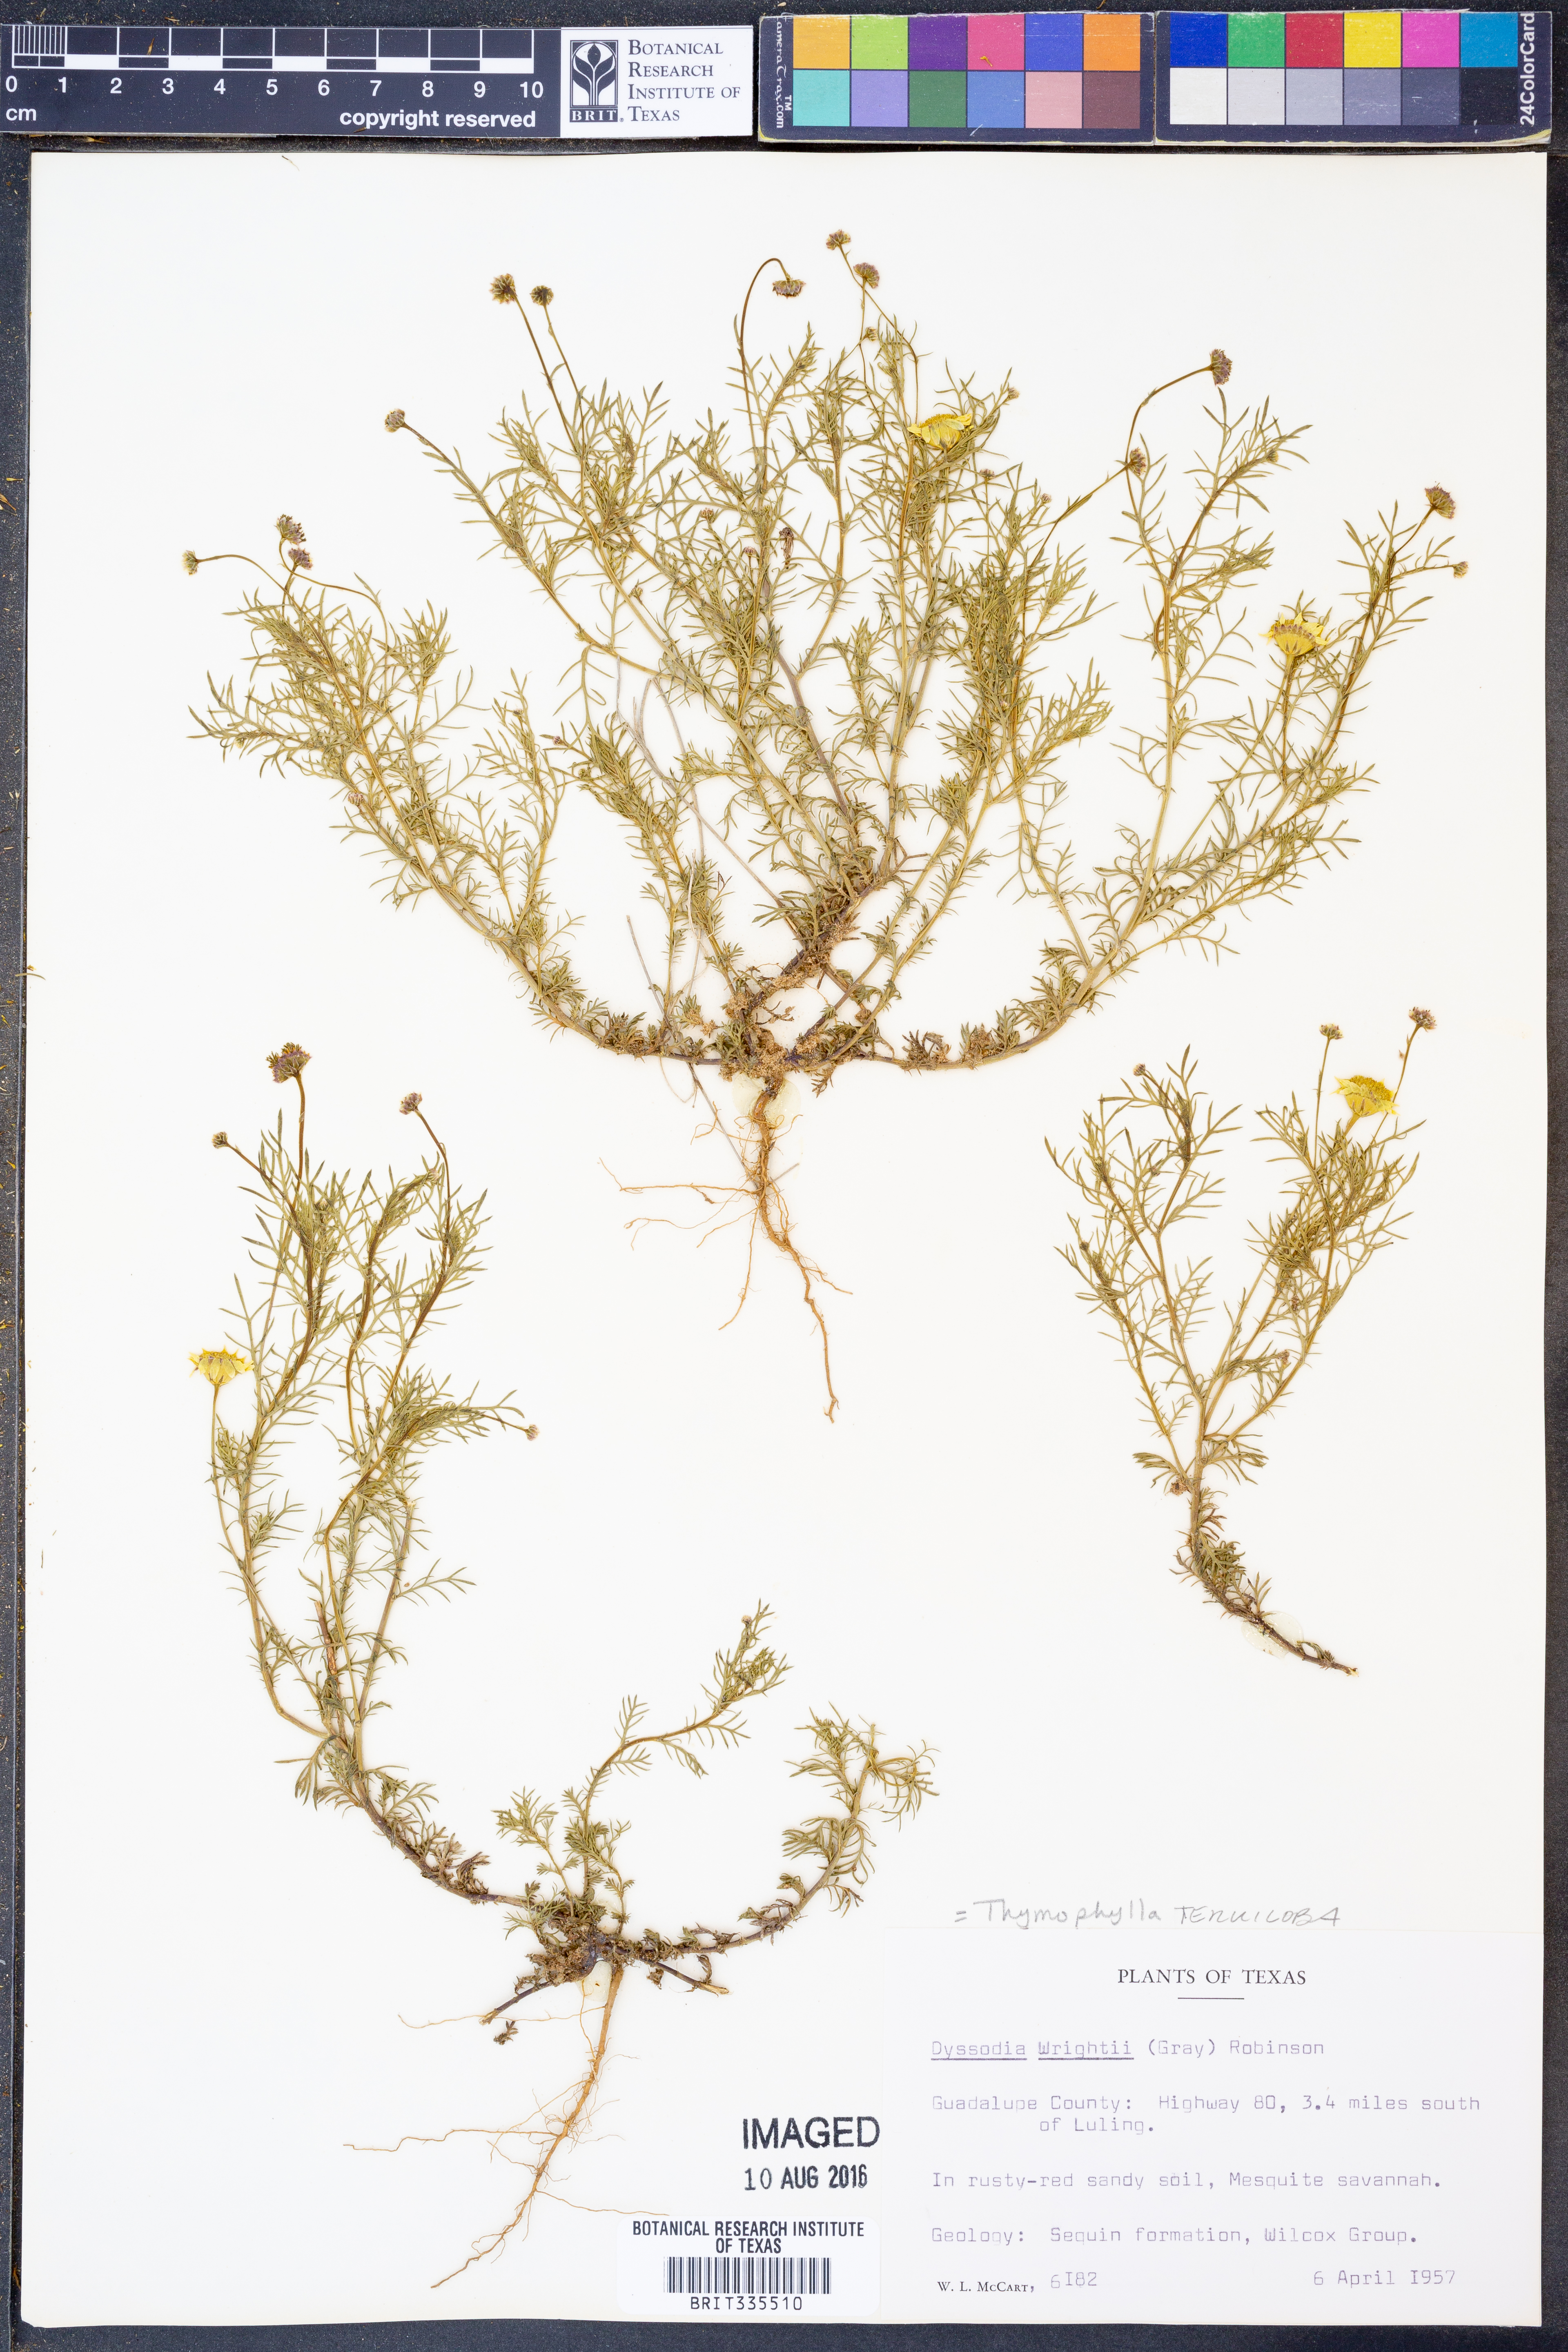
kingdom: Plantae
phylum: Tracheophyta
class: Magnoliopsida
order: Asterales
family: Asteraceae
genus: Thymophylla
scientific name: Thymophylla tenuiloba
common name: Dahlberg's daisy
